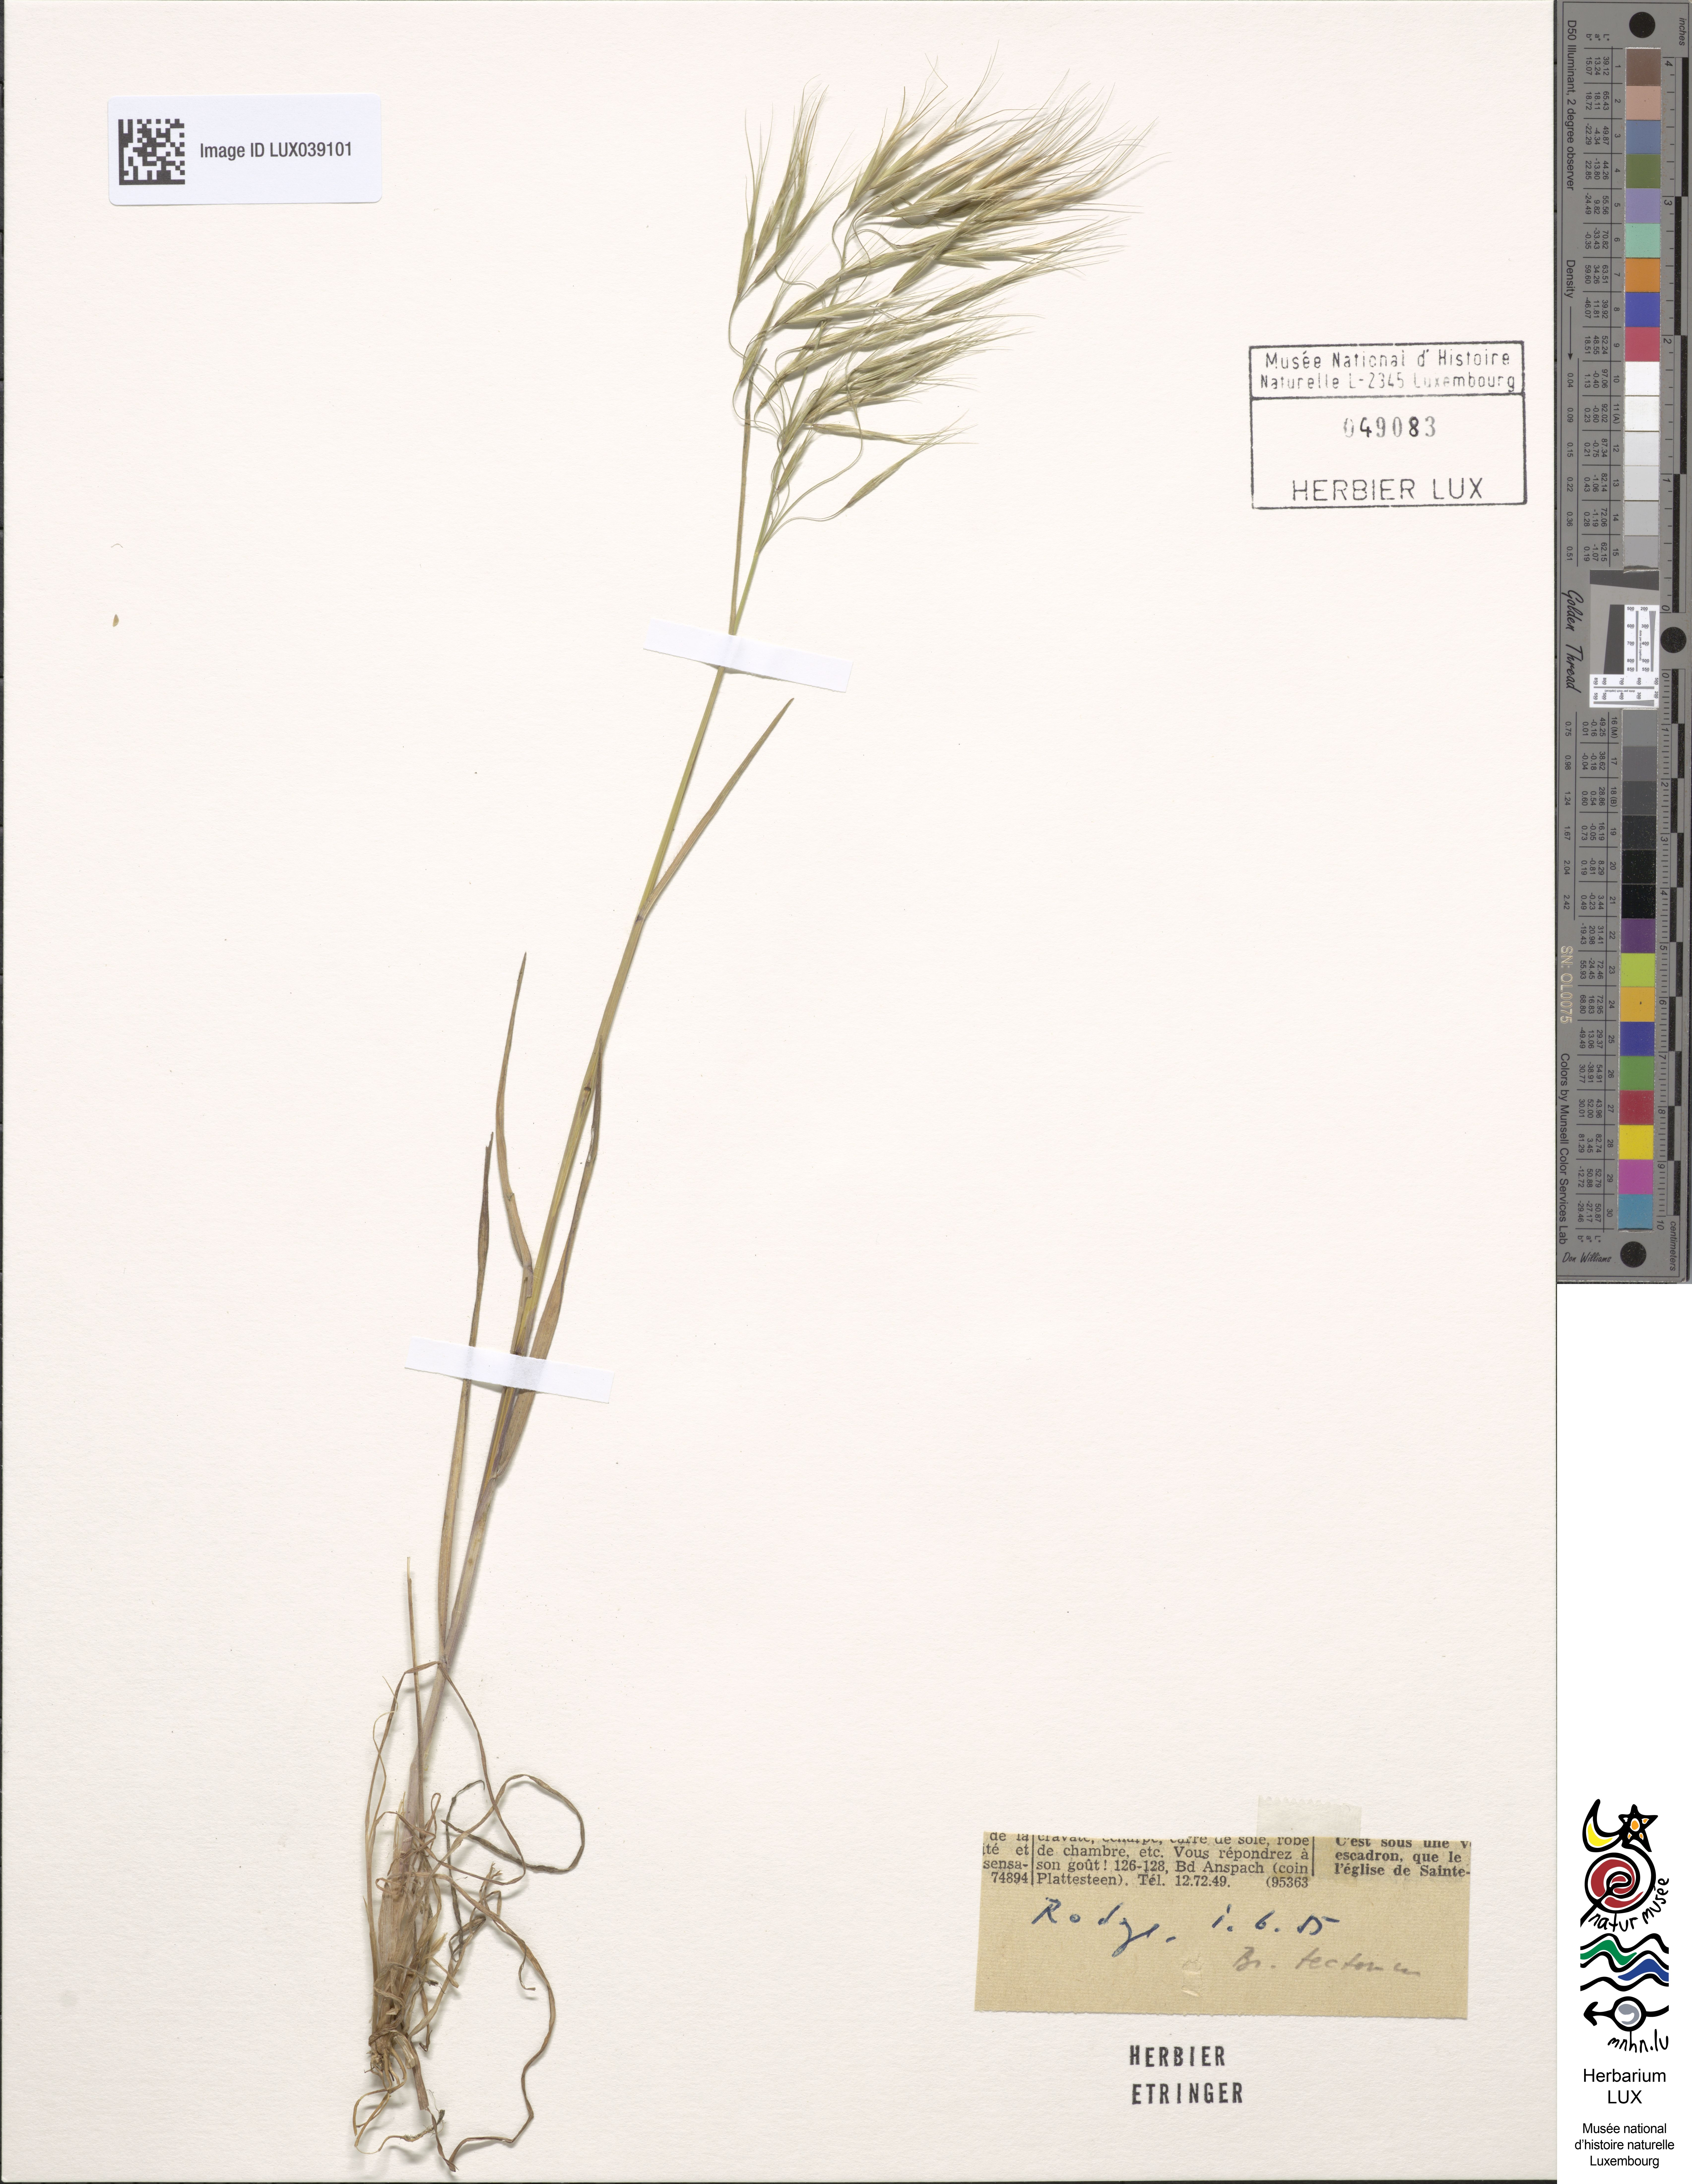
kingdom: Plantae
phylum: Tracheophyta
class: Liliopsida
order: Poales
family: Poaceae
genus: Bromus
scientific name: Bromus tectorum
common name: Cheatgrass
